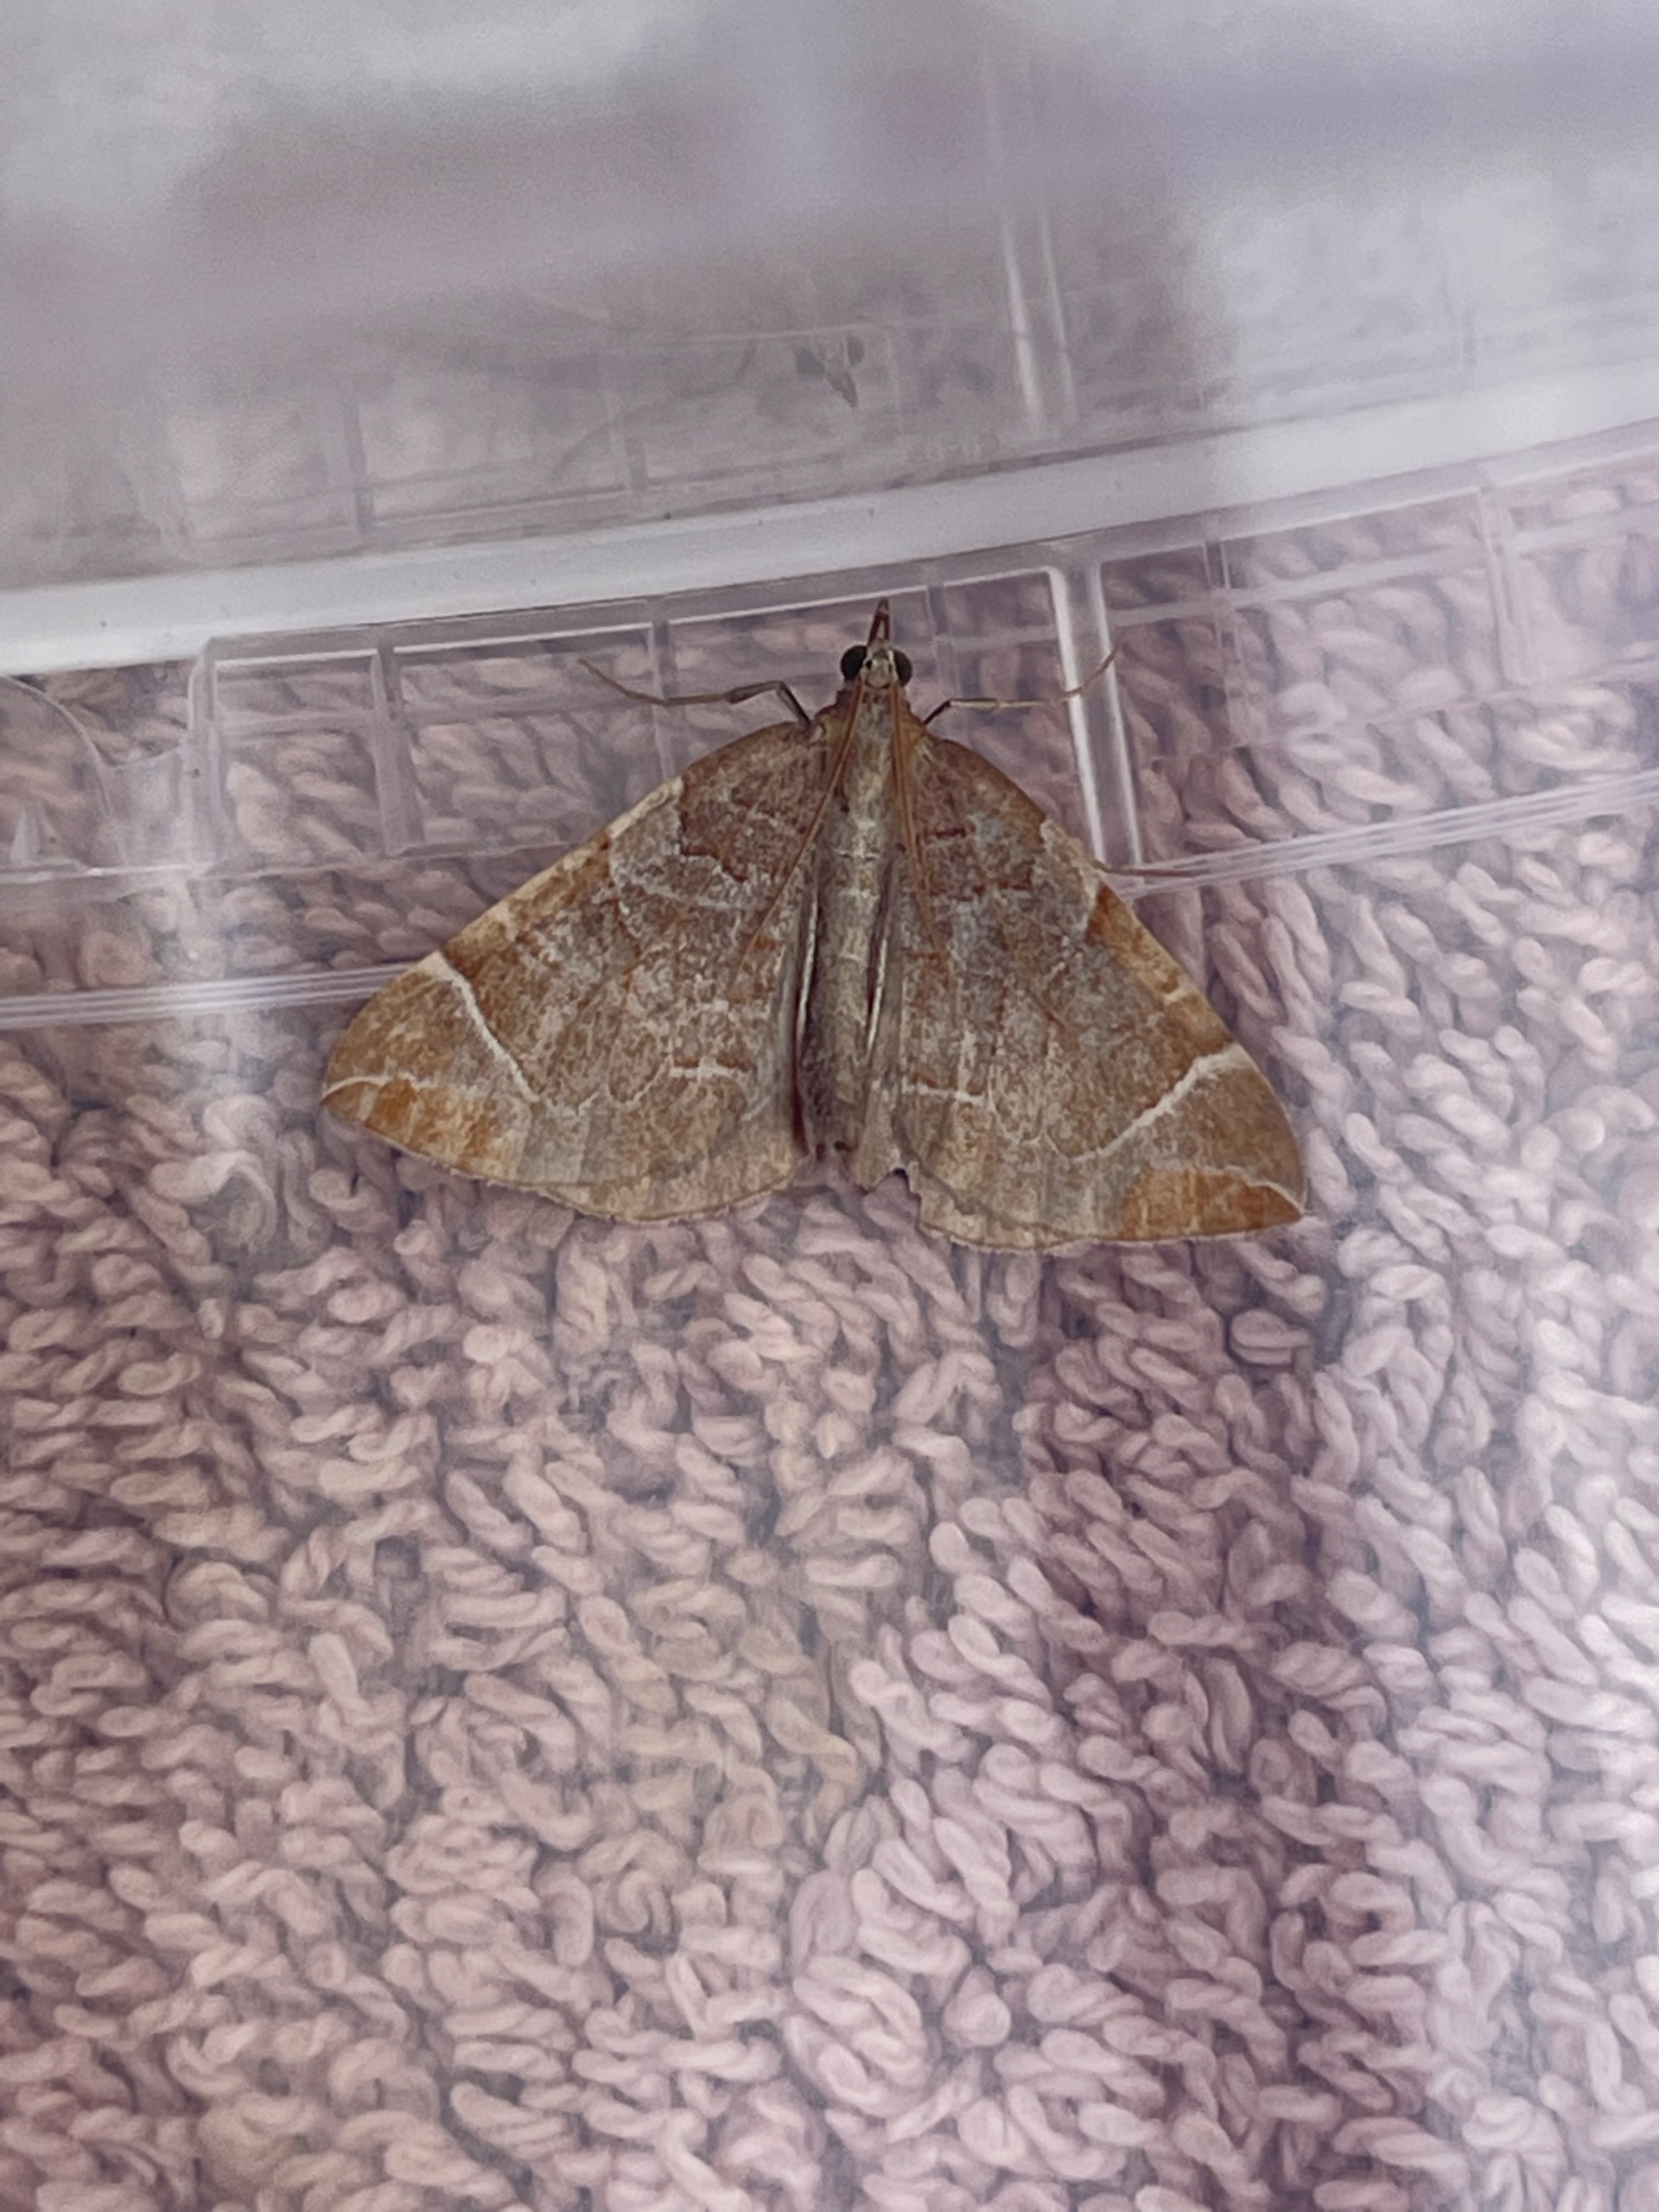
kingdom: Animalia
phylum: Arthropoda
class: Insecta
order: Lepidoptera
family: Geometridae
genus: Eulithis
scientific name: Eulithis testata
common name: Pile-havemåler
